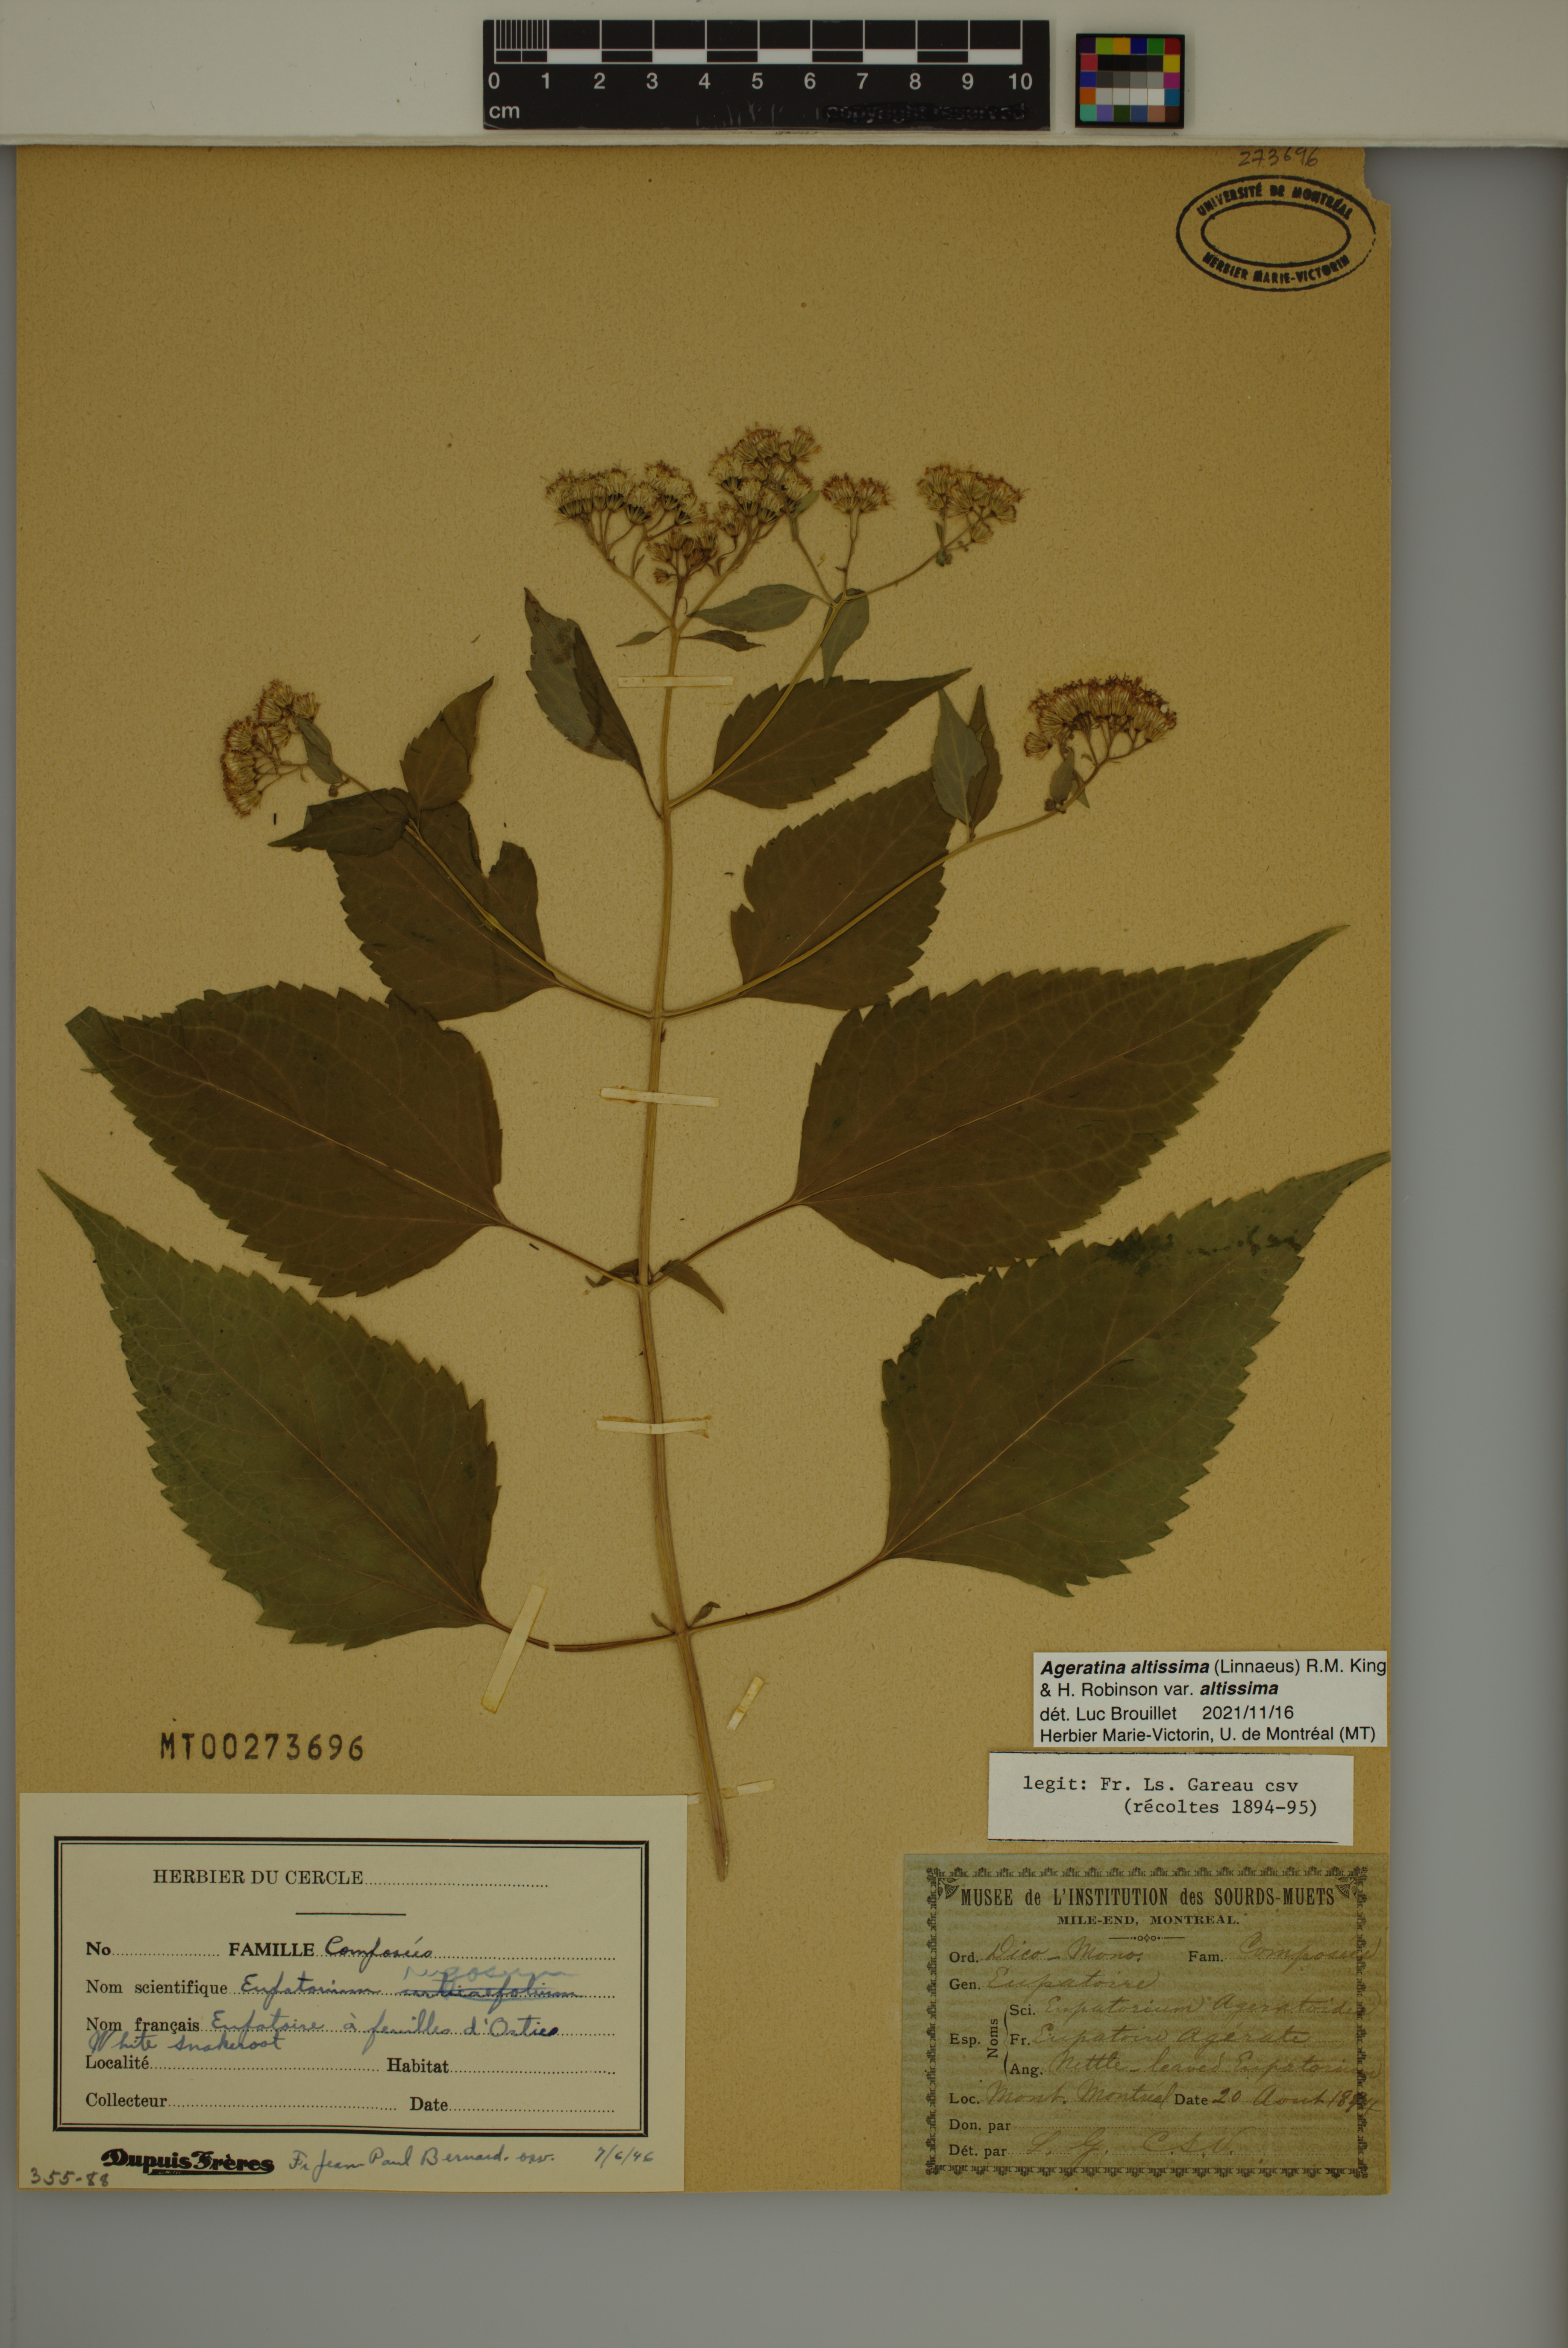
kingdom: Plantae
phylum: Tracheophyta
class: Magnoliopsida
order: Asterales
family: Asteraceae
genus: Ageratina
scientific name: Ageratina altissima
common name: White snakeroot
